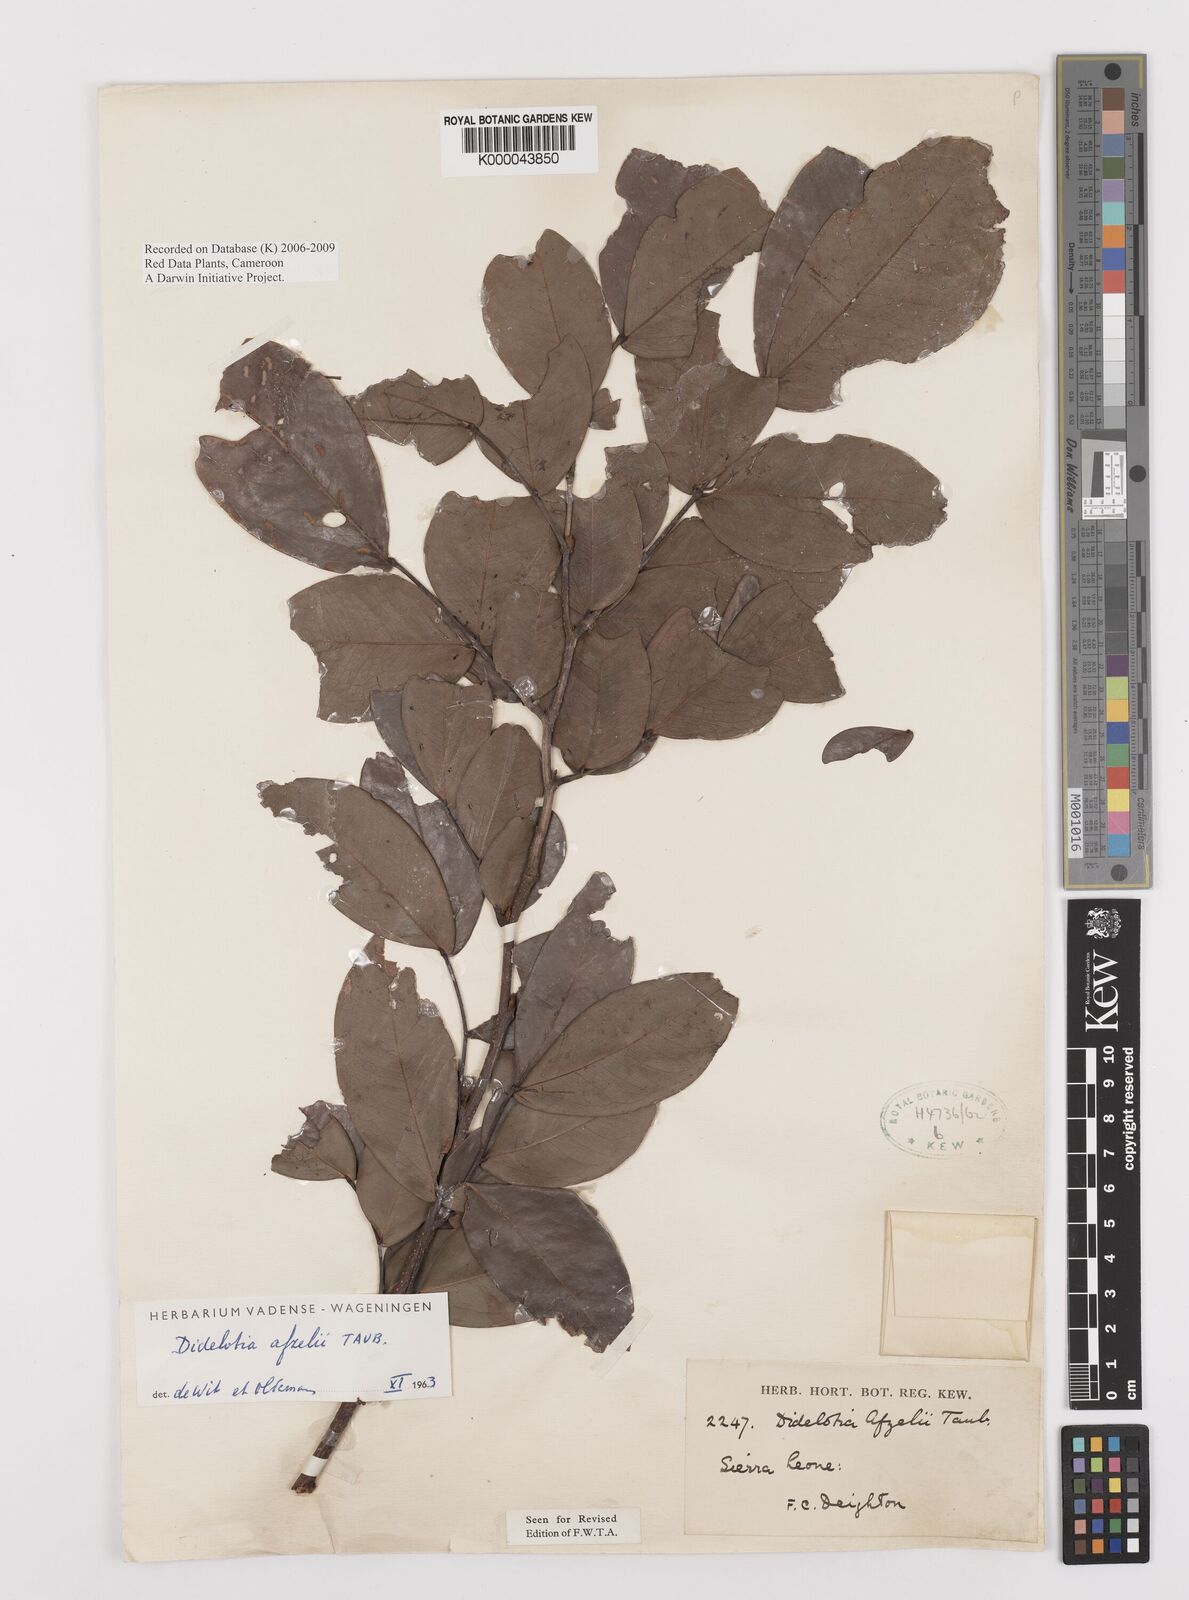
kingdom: Plantae
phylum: Tracheophyta
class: Magnoliopsida
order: Fabales
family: Fabaceae
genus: Didelotia
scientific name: Didelotia
